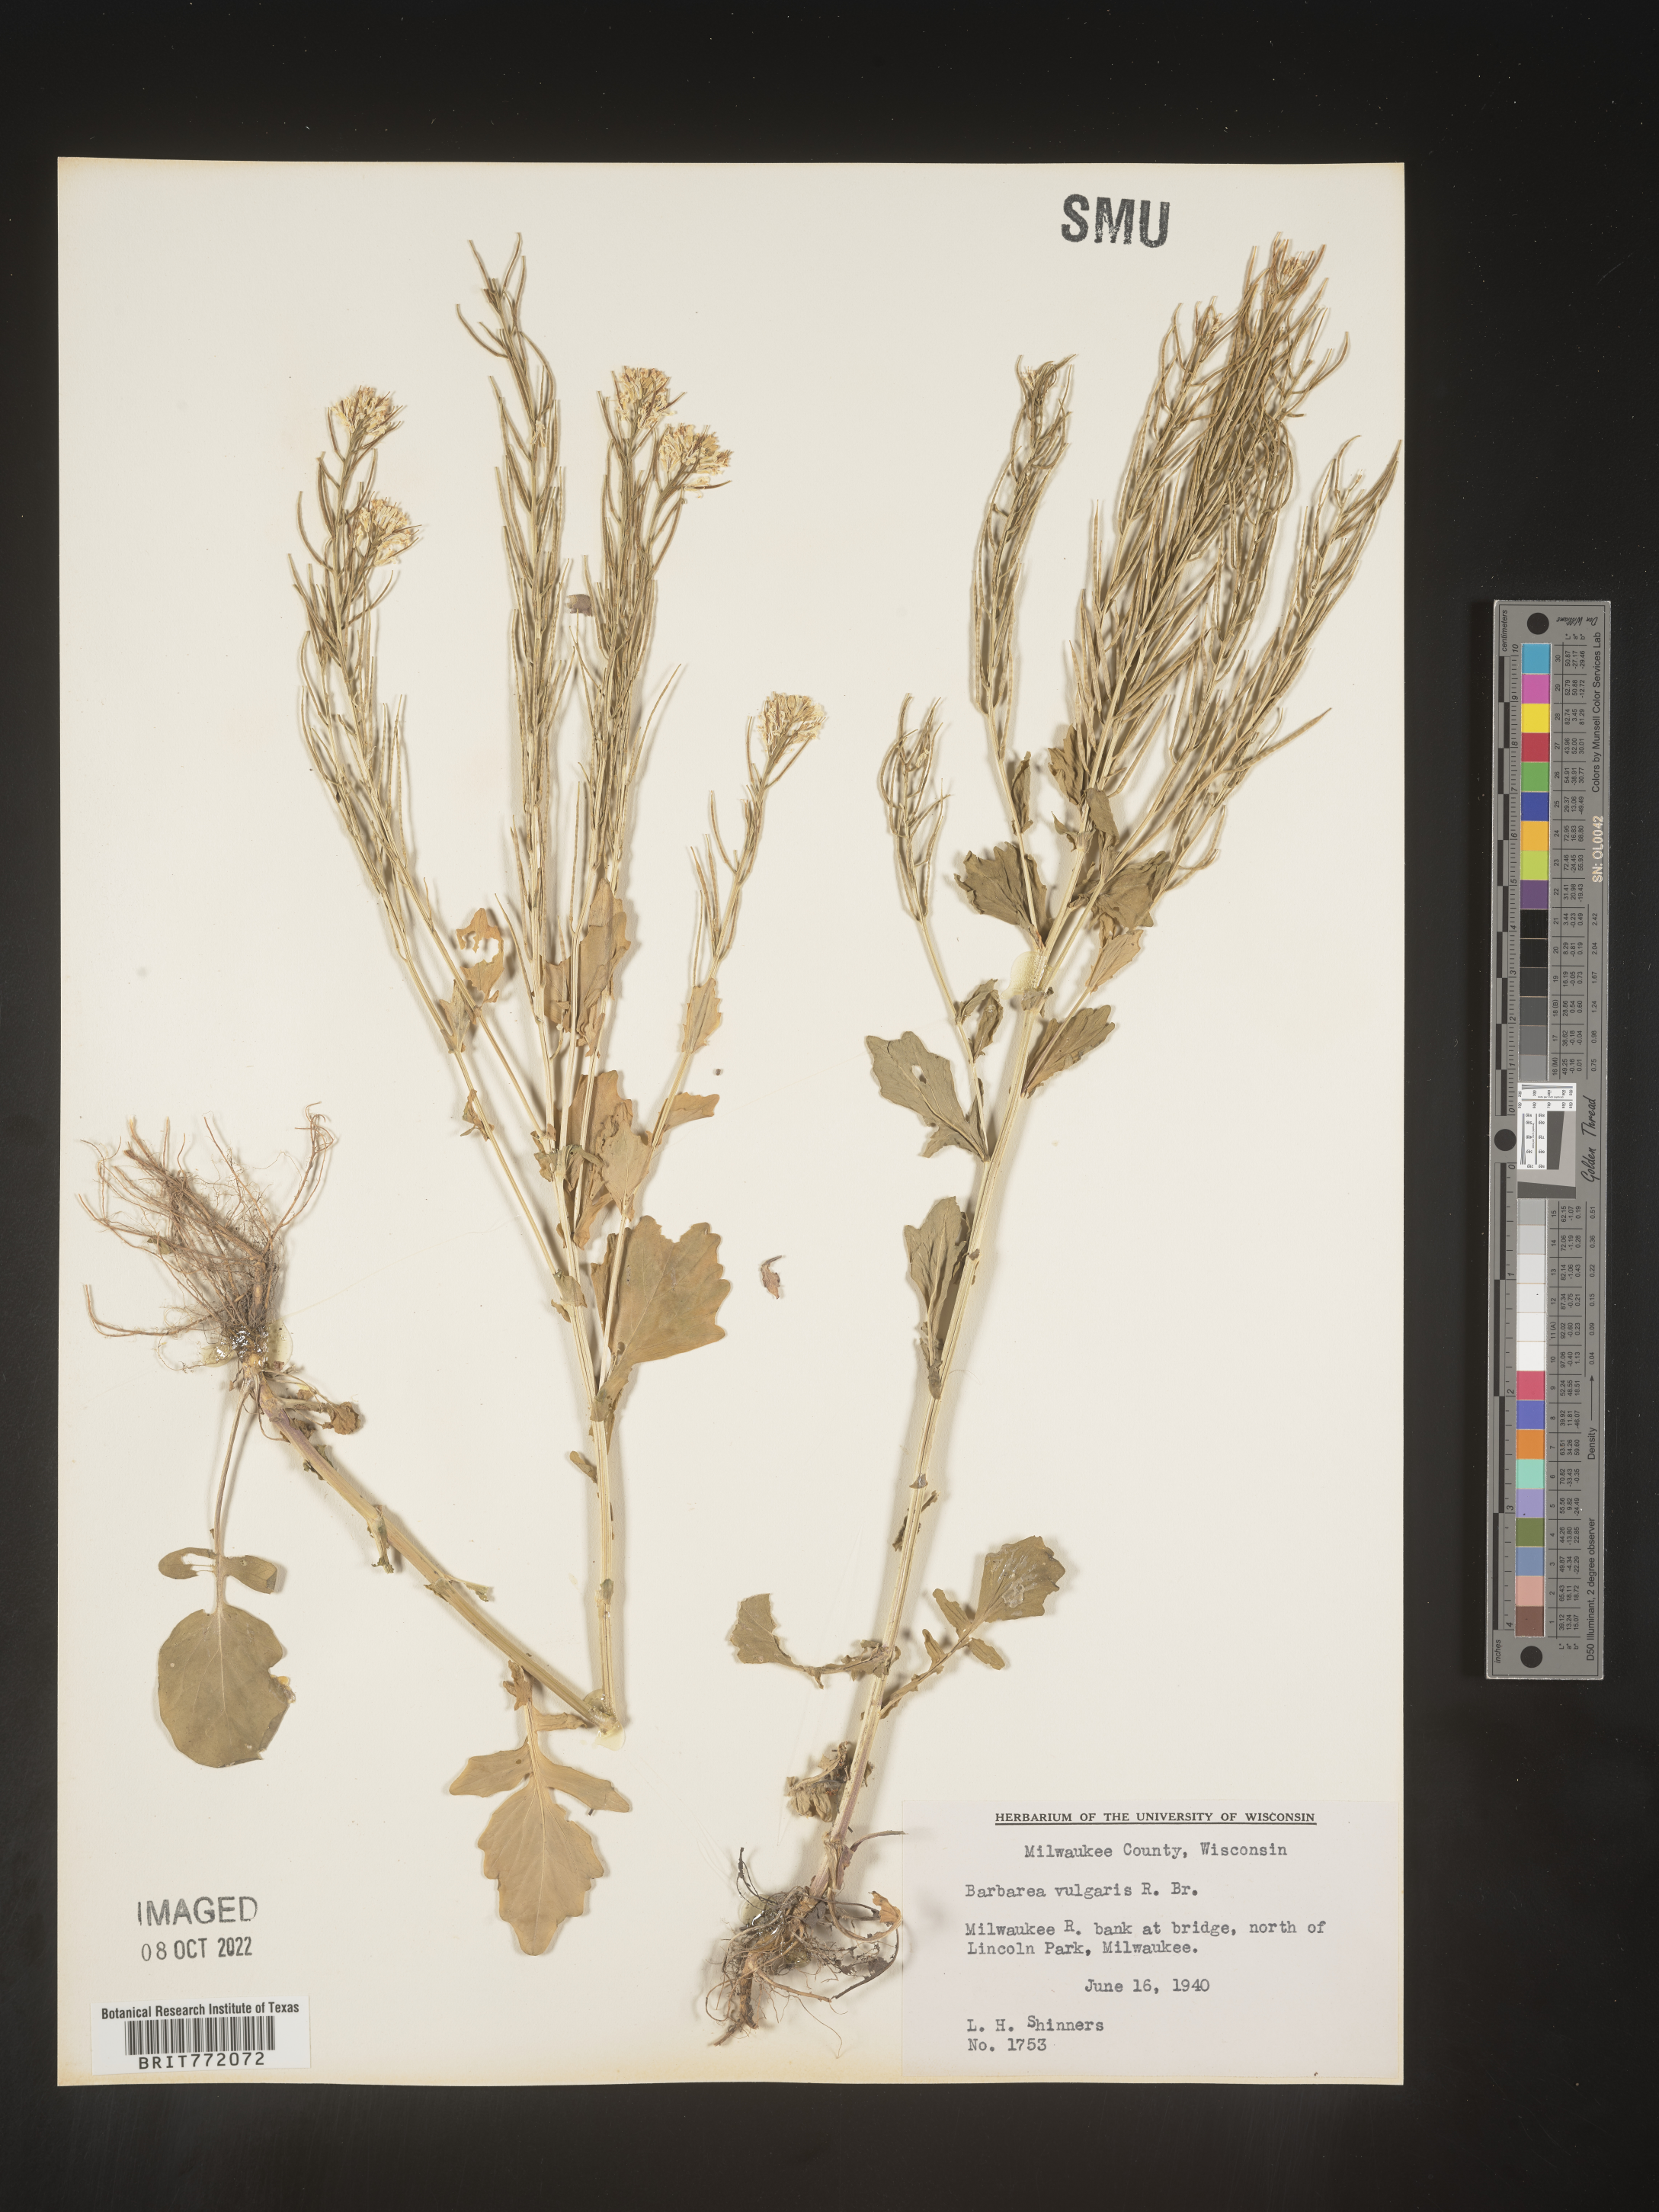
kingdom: Plantae
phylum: Tracheophyta
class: Magnoliopsida
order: Brassicales
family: Brassicaceae
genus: Barbarea
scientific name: Barbarea vulgaris
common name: Cressy-greens
